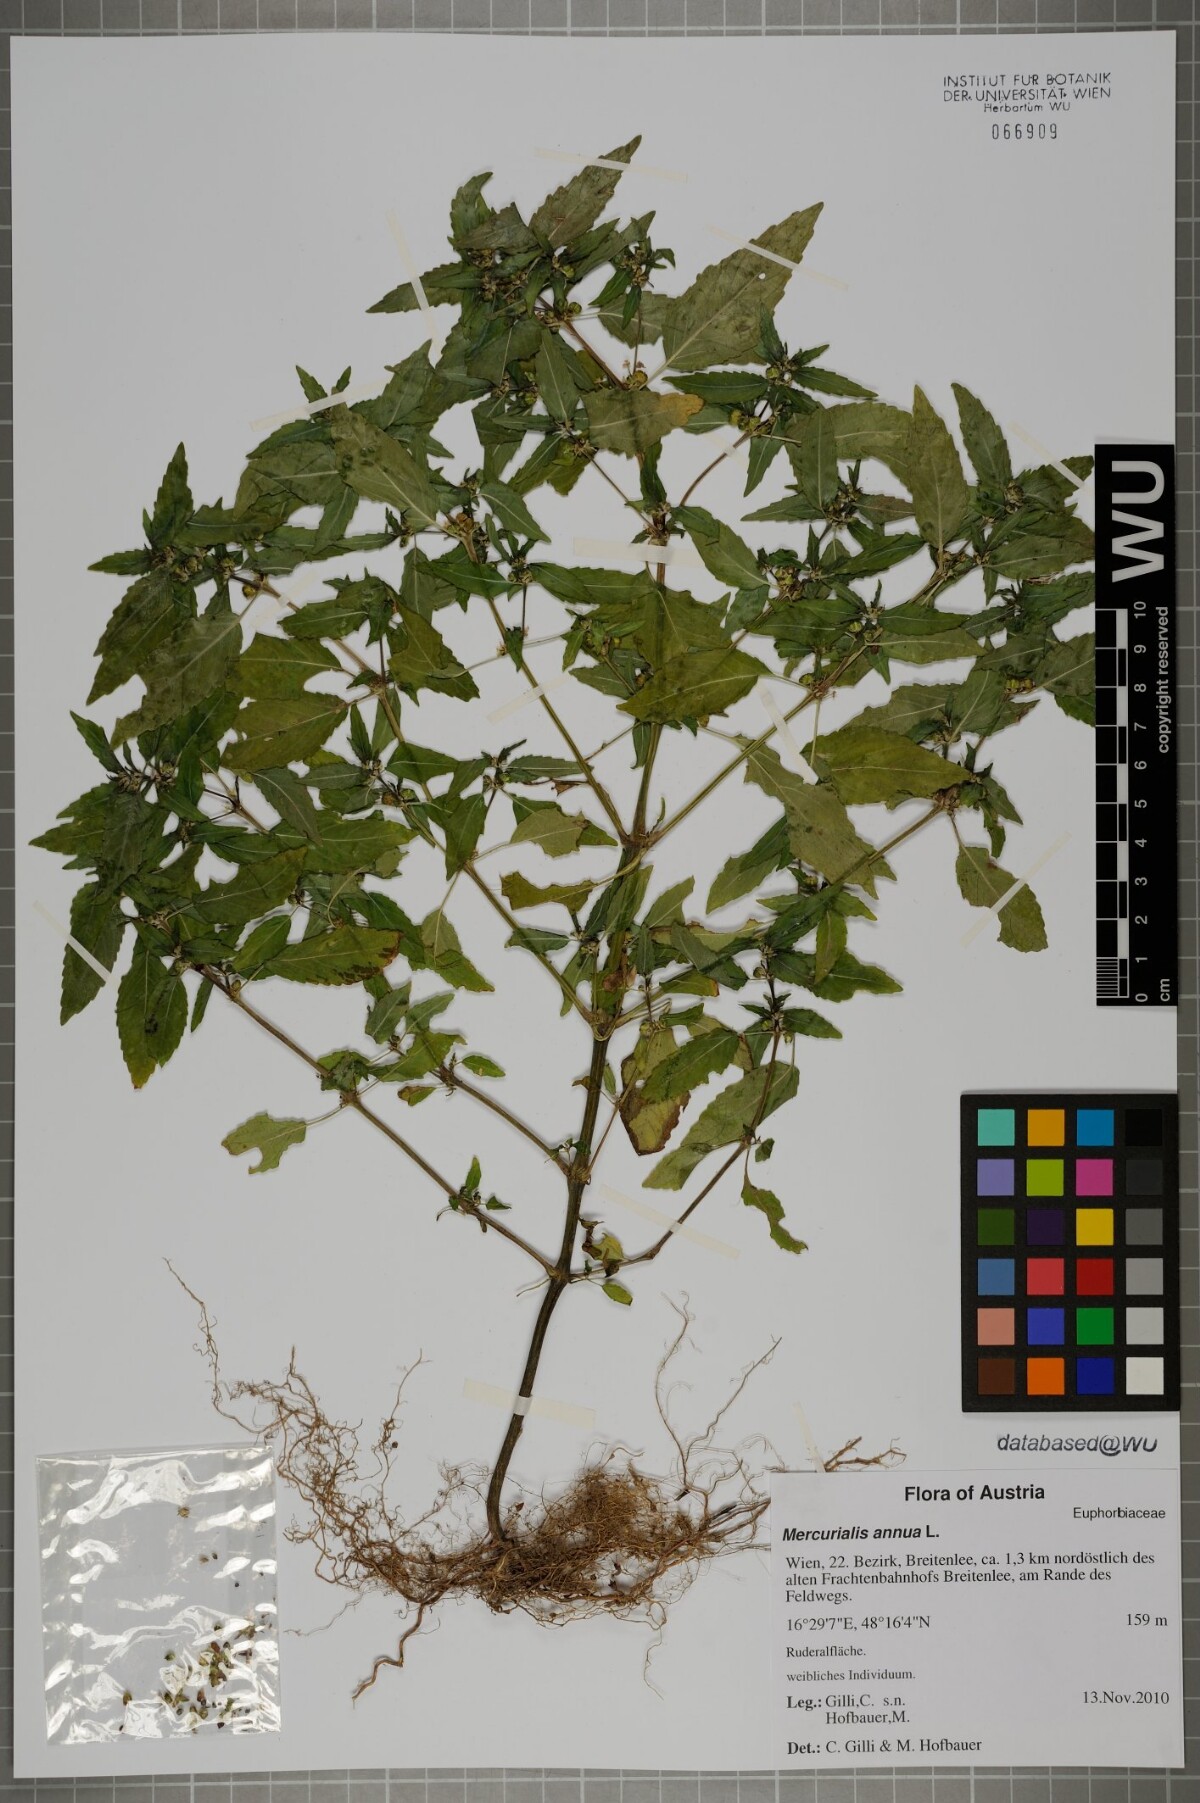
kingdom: Plantae
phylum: Tracheophyta
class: Magnoliopsida
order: Malpighiales
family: Euphorbiaceae
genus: Mercurialis
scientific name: Mercurialis annua
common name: Annual mercury
